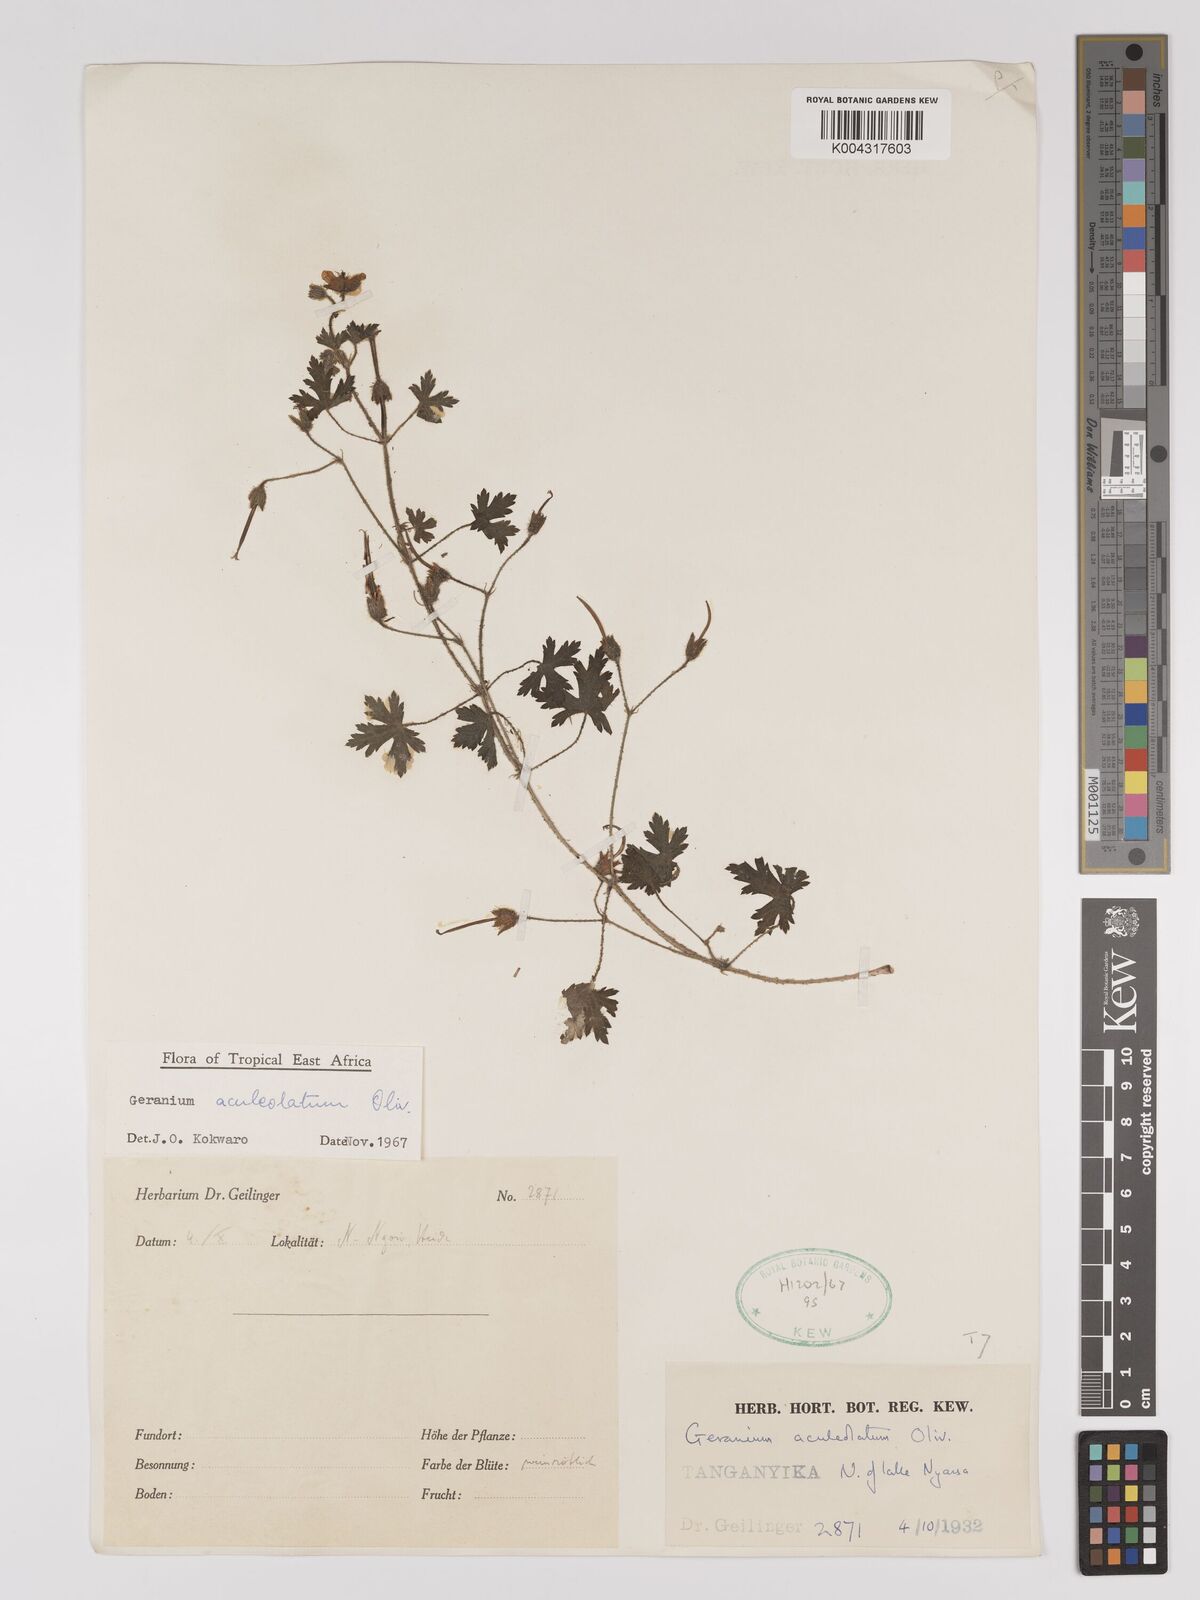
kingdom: Plantae
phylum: Tracheophyta
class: Magnoliopsida
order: Geraniales
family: Geraniaceae
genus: Geranium
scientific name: Geranium aculeolatum
